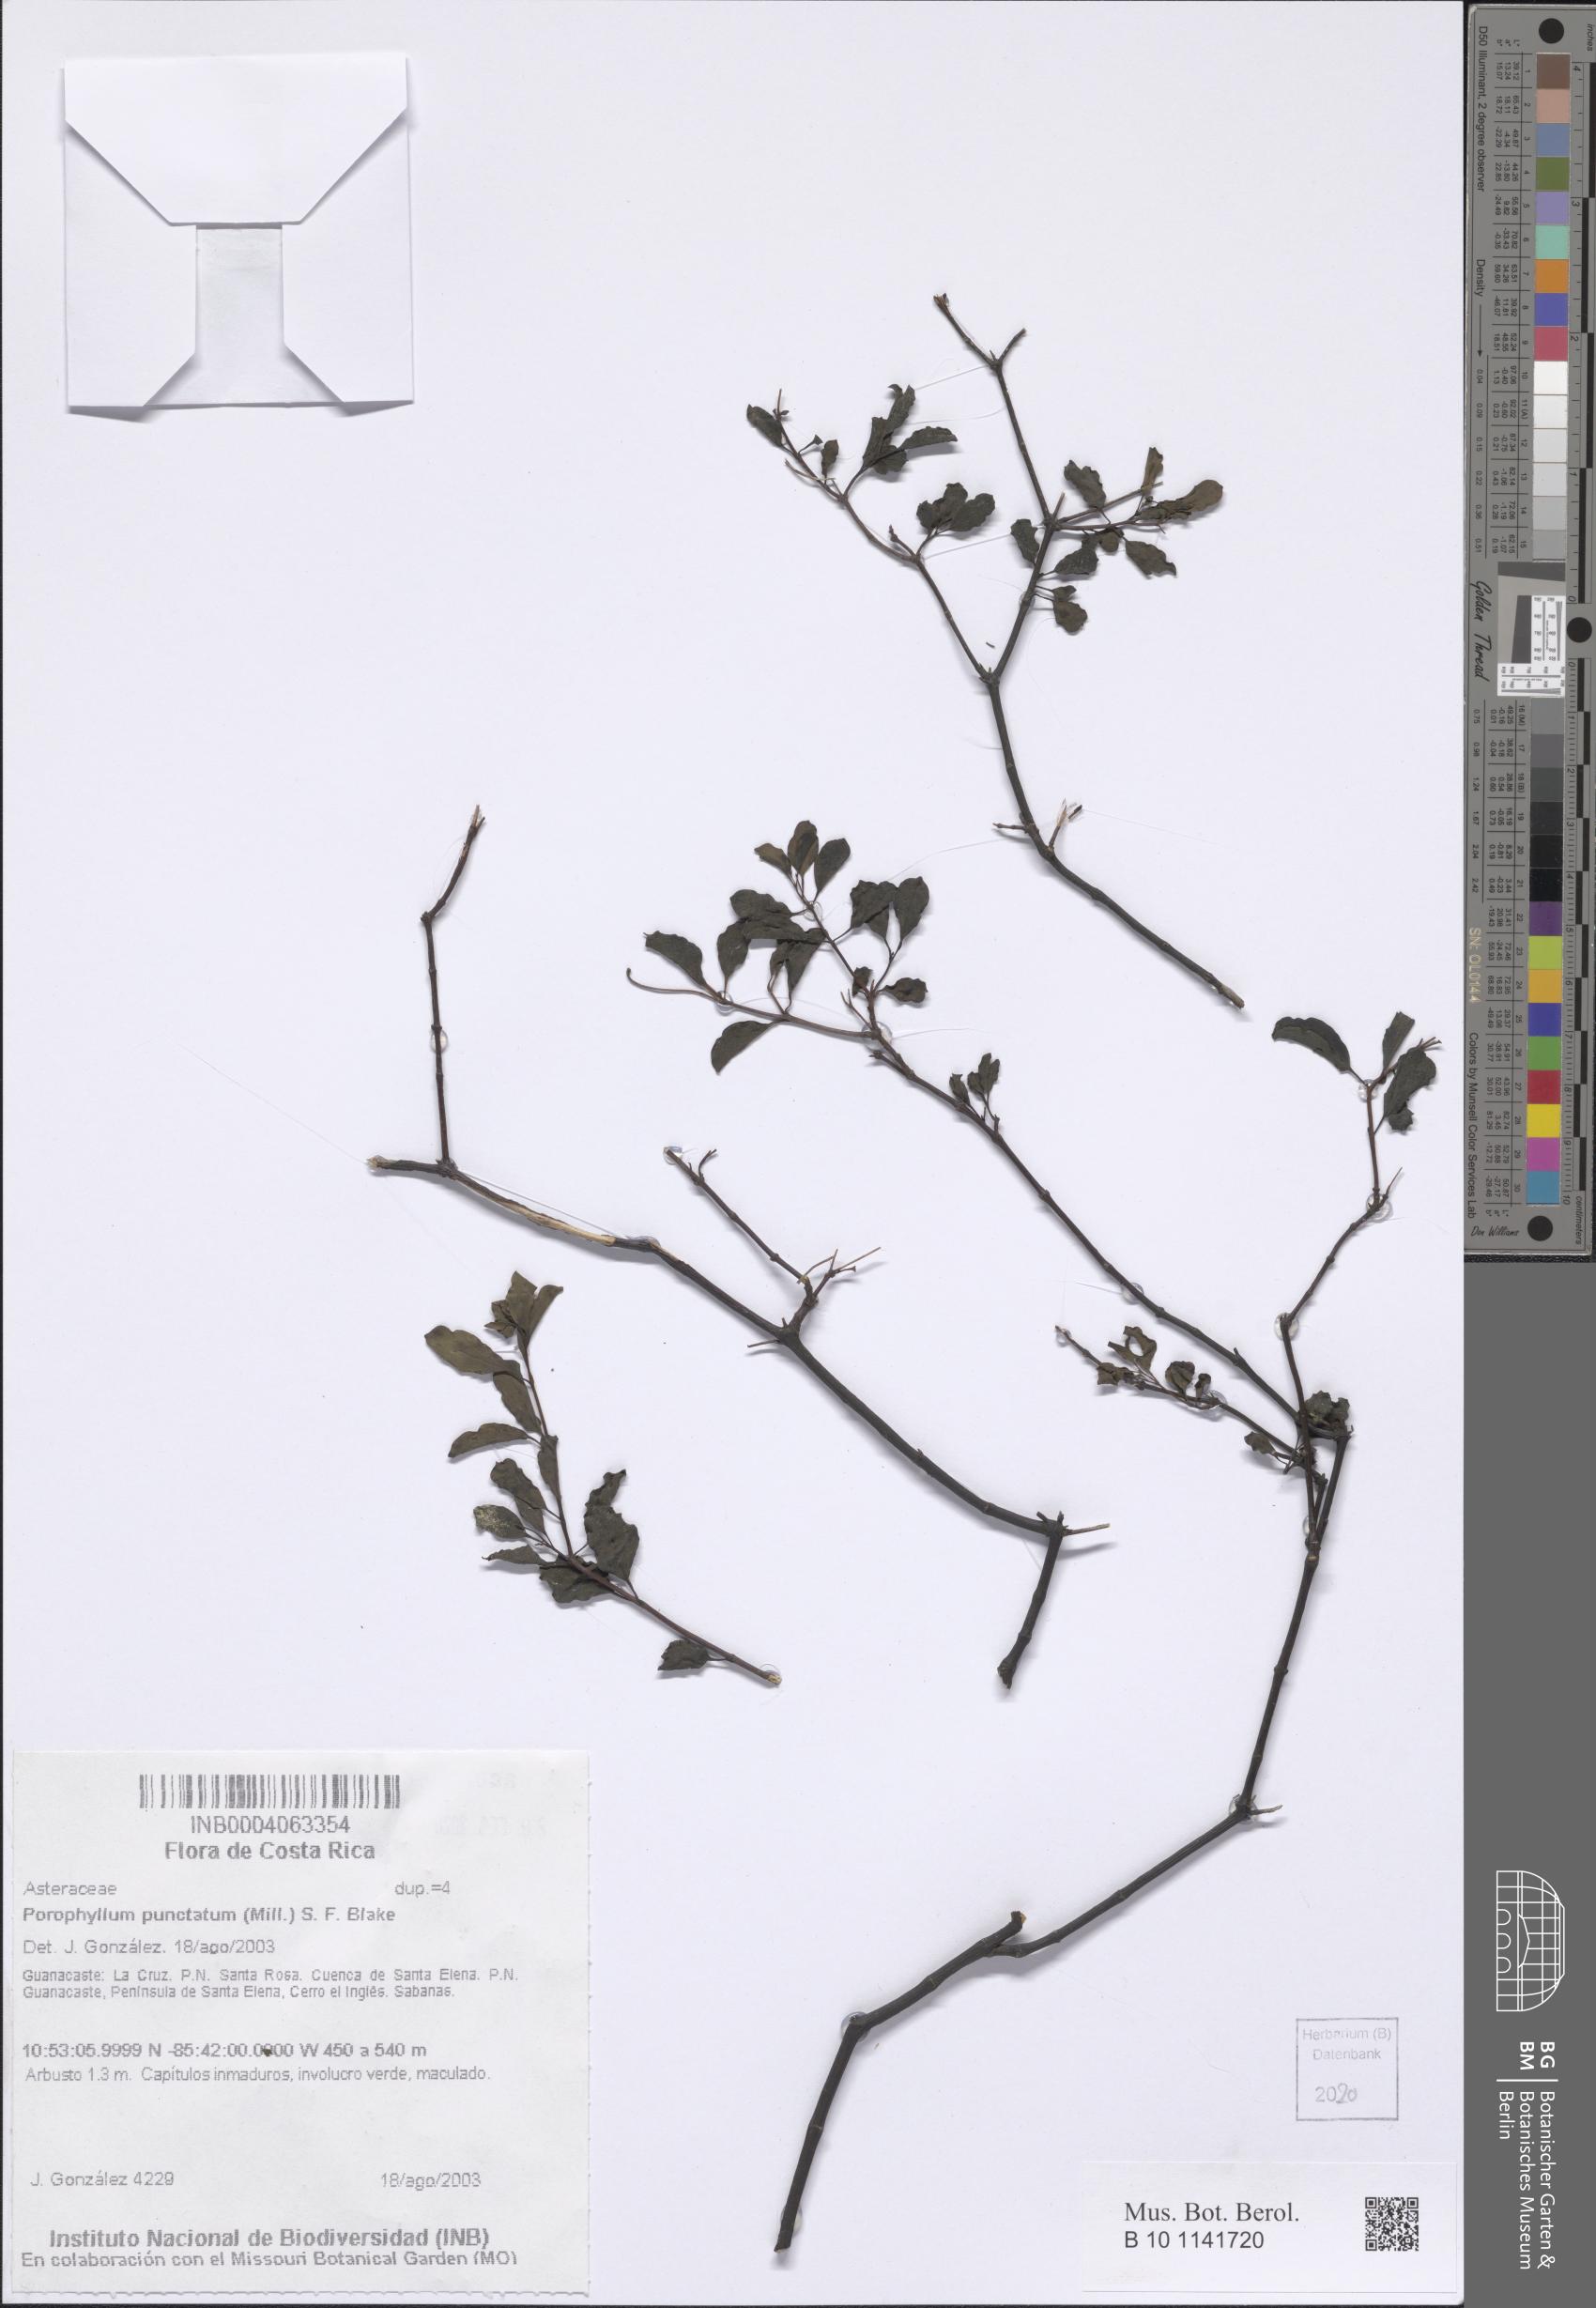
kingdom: Plantae
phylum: Tracheophyta
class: Magnoliopsida
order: Asterales
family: Asteraceae
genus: Porophyllum
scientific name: Porophyllum punctatum
